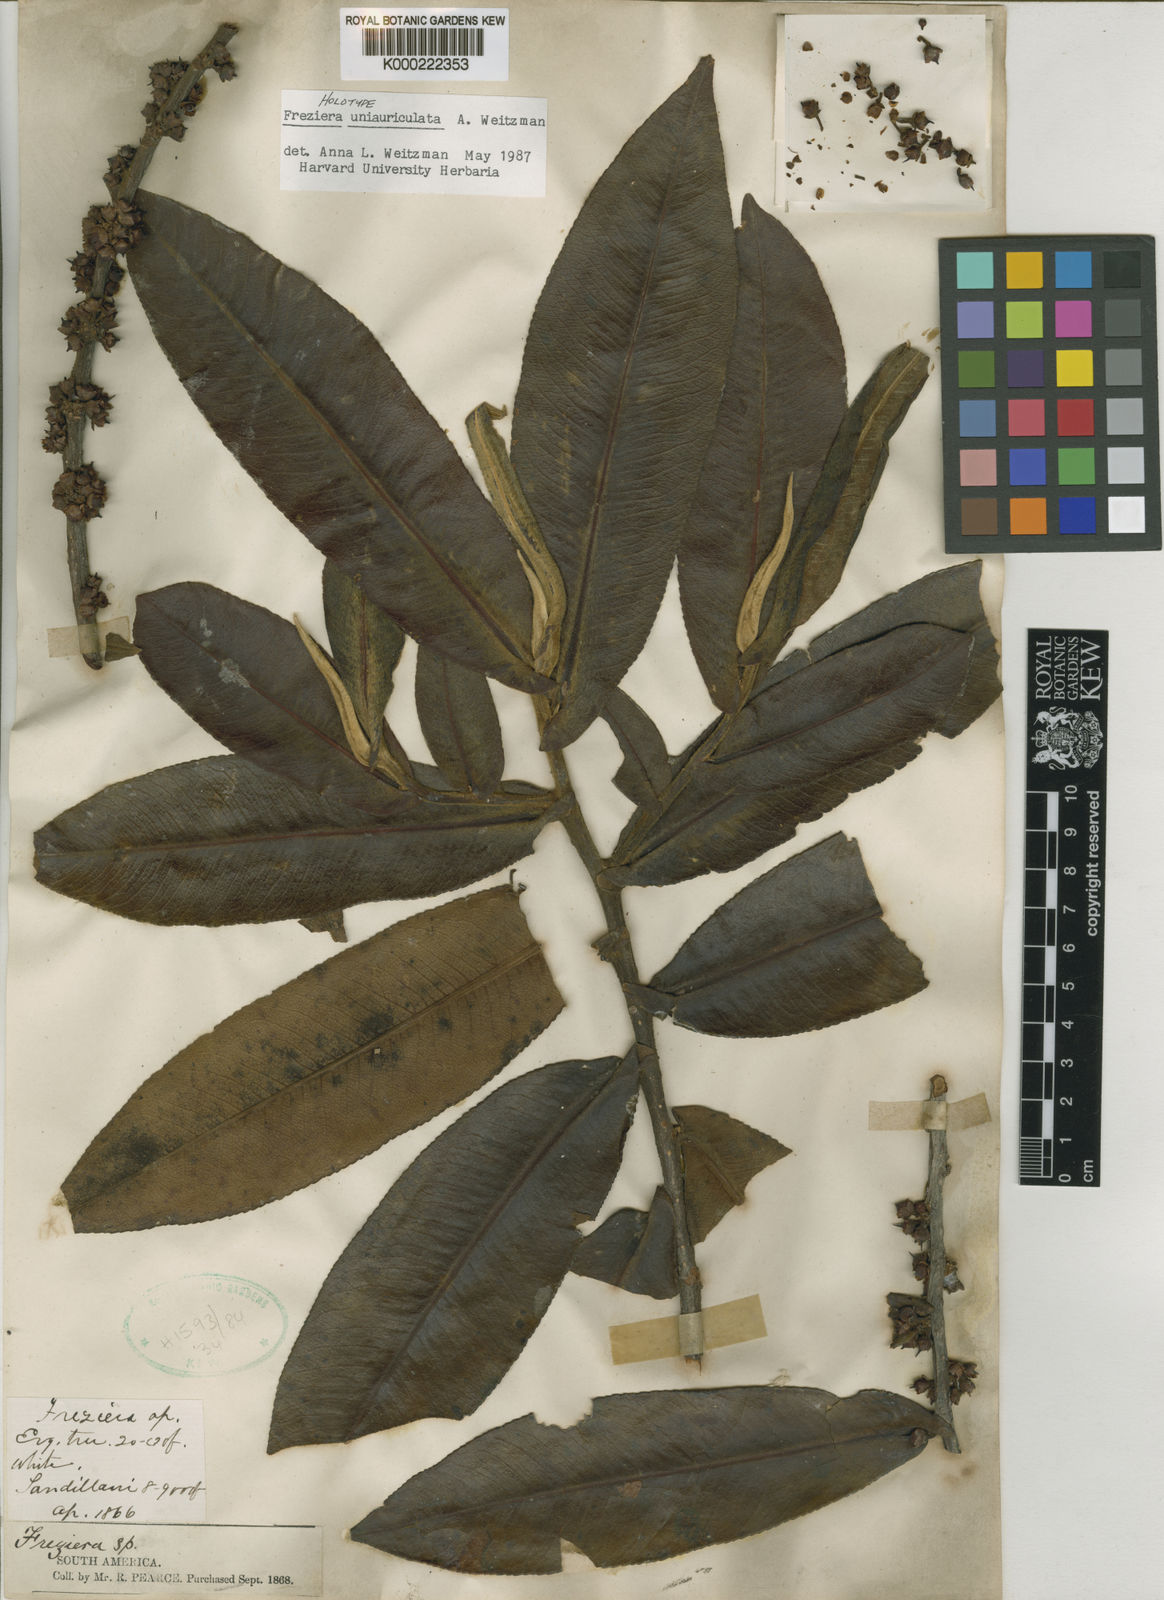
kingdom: Plantae
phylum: Tracheophyta
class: Magnoliopsida
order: Ericales
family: Pentaphylacaceae
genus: Freziera
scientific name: Freziera
